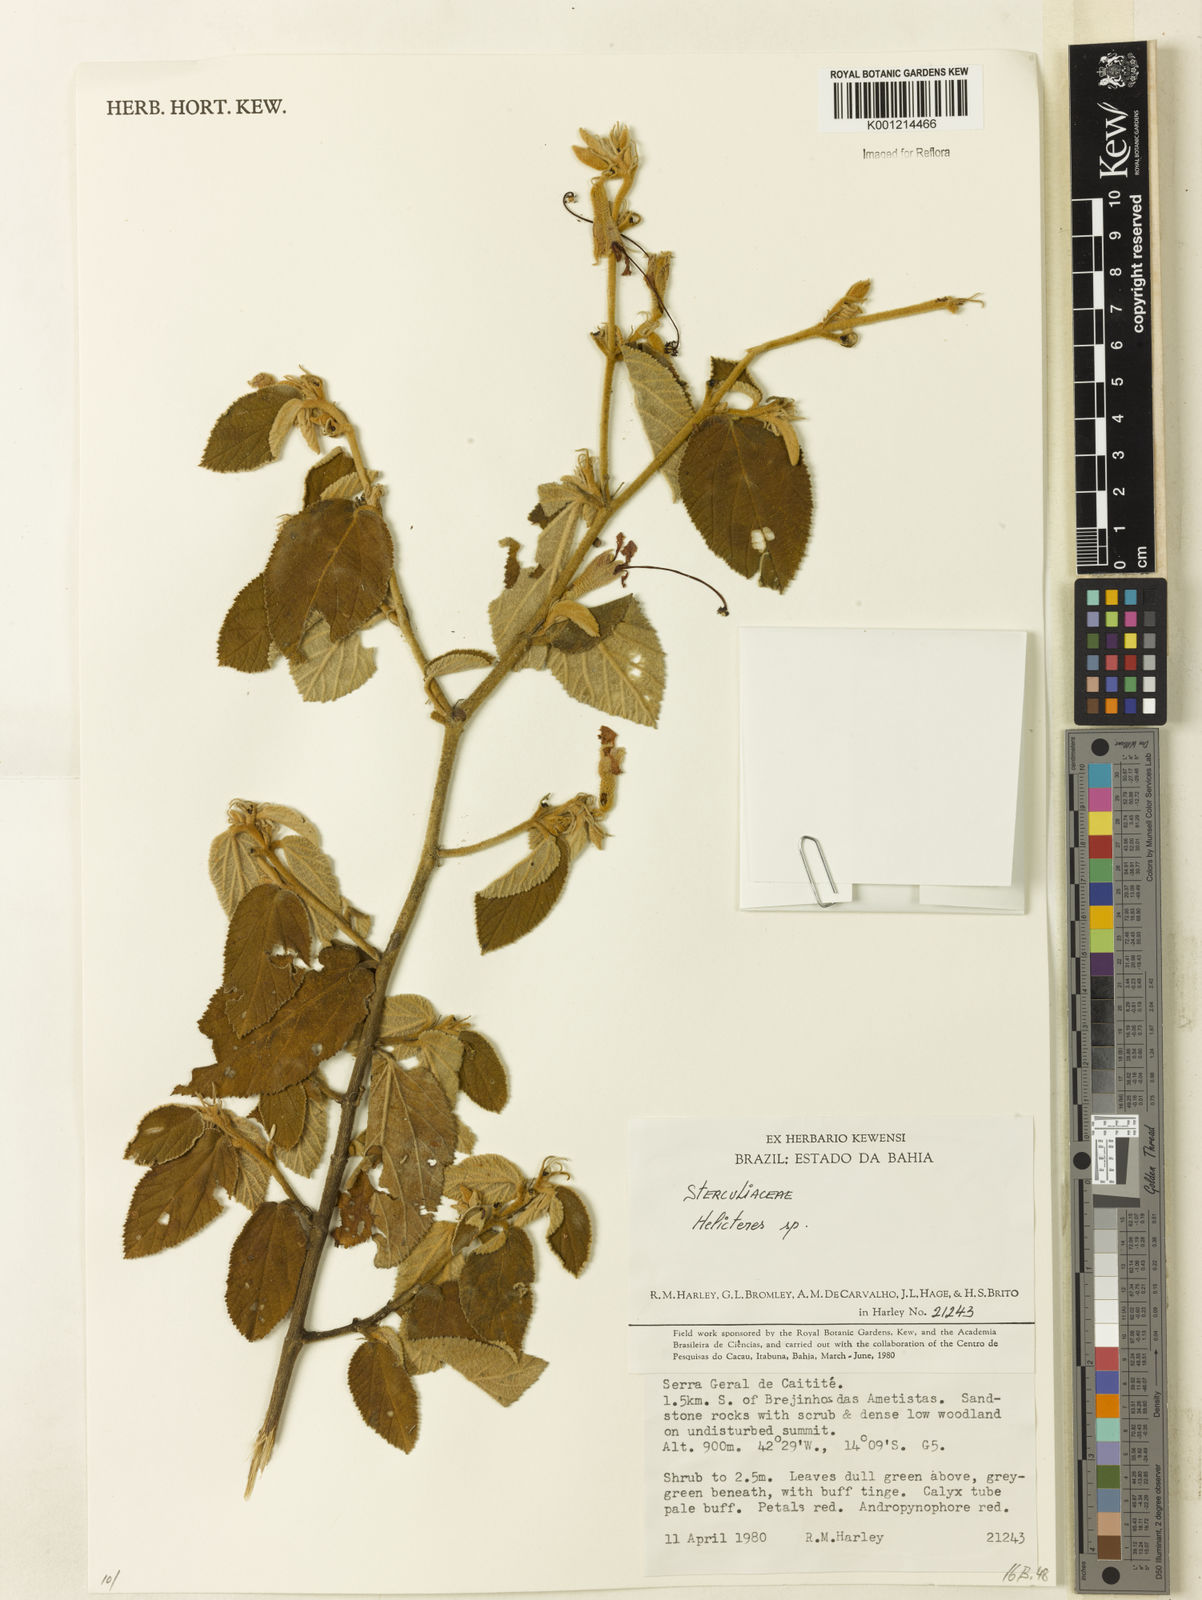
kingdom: Plantae
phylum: Tracheophyta
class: Magnoliopsida
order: Malvales
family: Malvaceae
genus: Helicteres
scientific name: Helicteres
